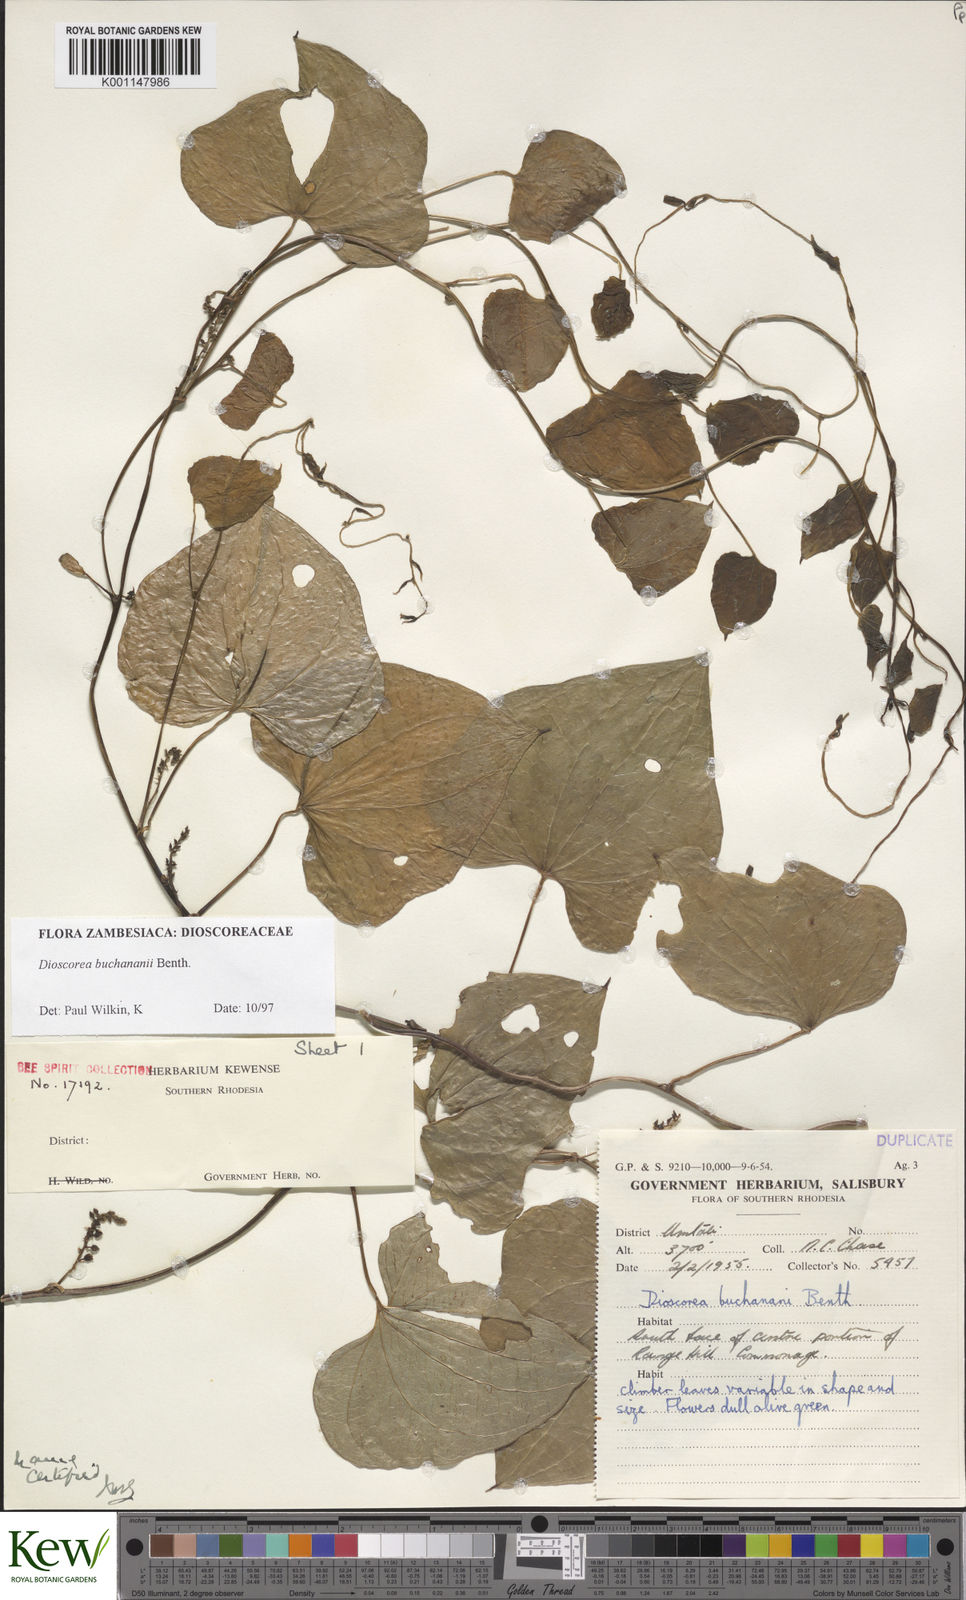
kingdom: Plantae
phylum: Tracheophyta
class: Liliopsida
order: Dioscoreales
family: Dioscoreaceae
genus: Dioscorea
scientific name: Dioscorea buchananii
